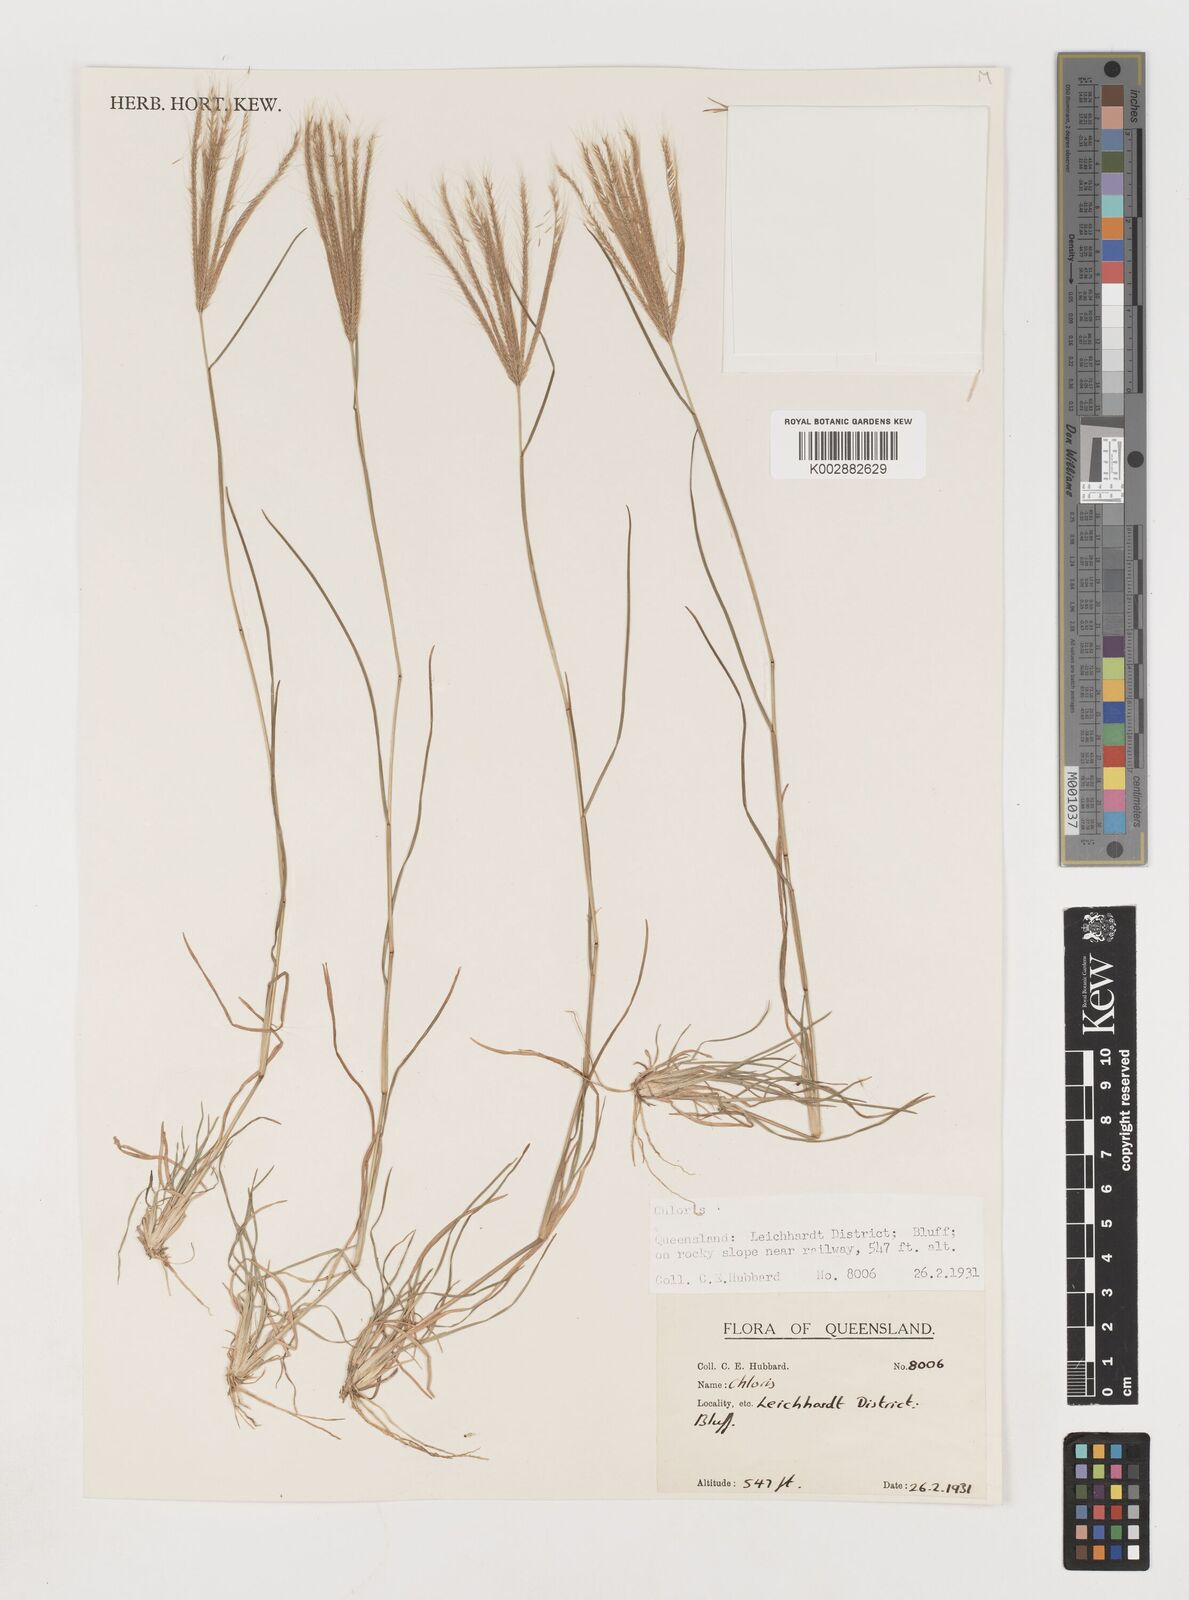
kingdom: Plantae
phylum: Tracheophyta
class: Liliopsida
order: Poales
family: Poaceae
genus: Chloris
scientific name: Chloris pumilio
